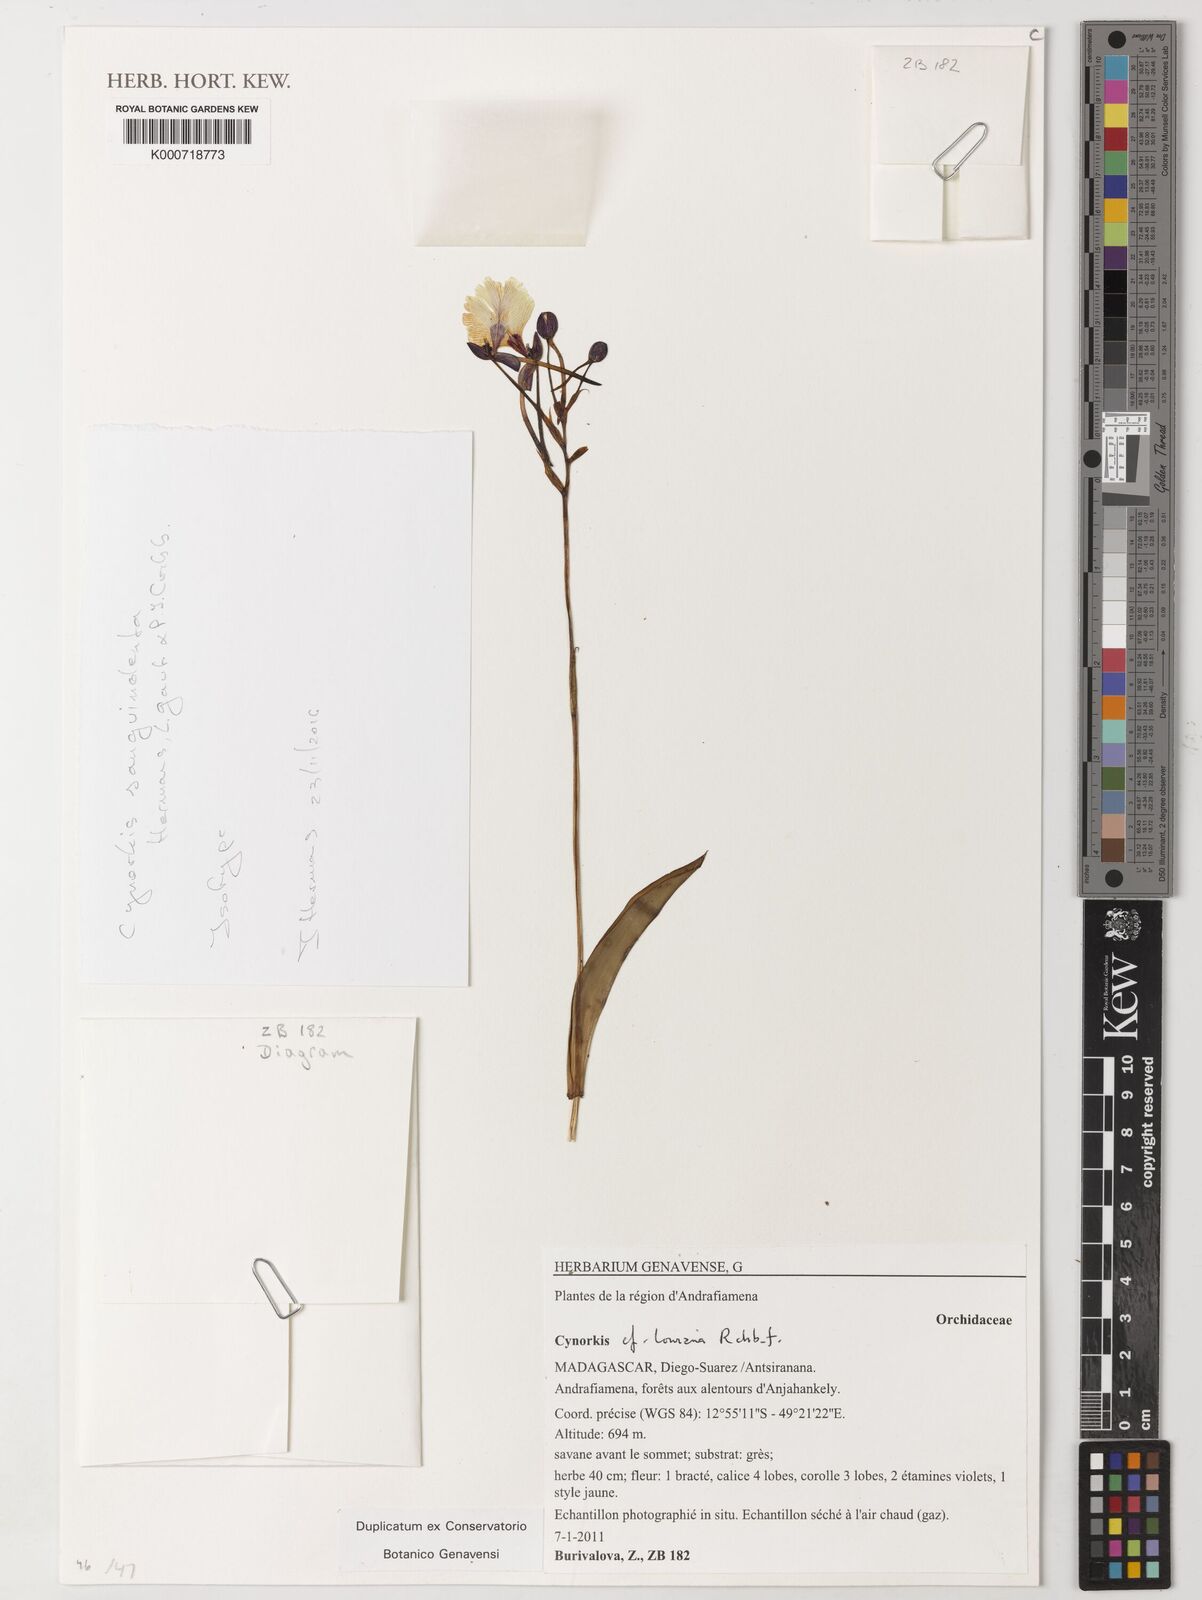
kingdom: Plantae
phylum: Tracheophyta
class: Liliopsida
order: Asparagales
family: Orchidaceae
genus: Cynorkis
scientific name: Cynorkis lowiana
